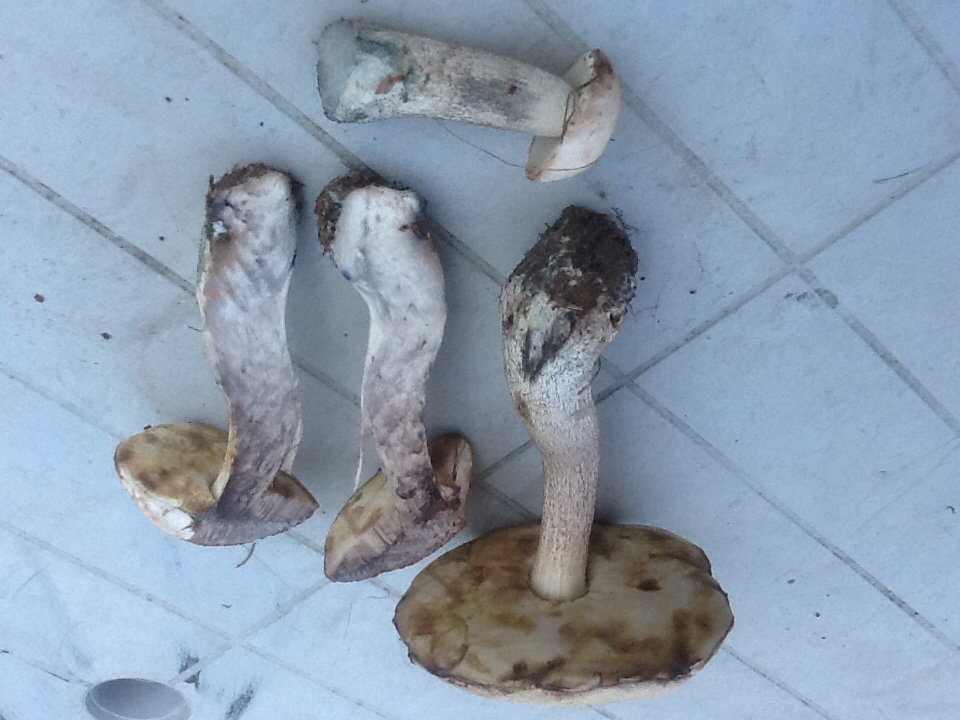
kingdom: Fungi
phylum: Basidiomycota
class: Agaricomycetes
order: Boletales
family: Boletaceae
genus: Leccinum
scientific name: Leccinum versipelle
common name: orange skælrørhat
